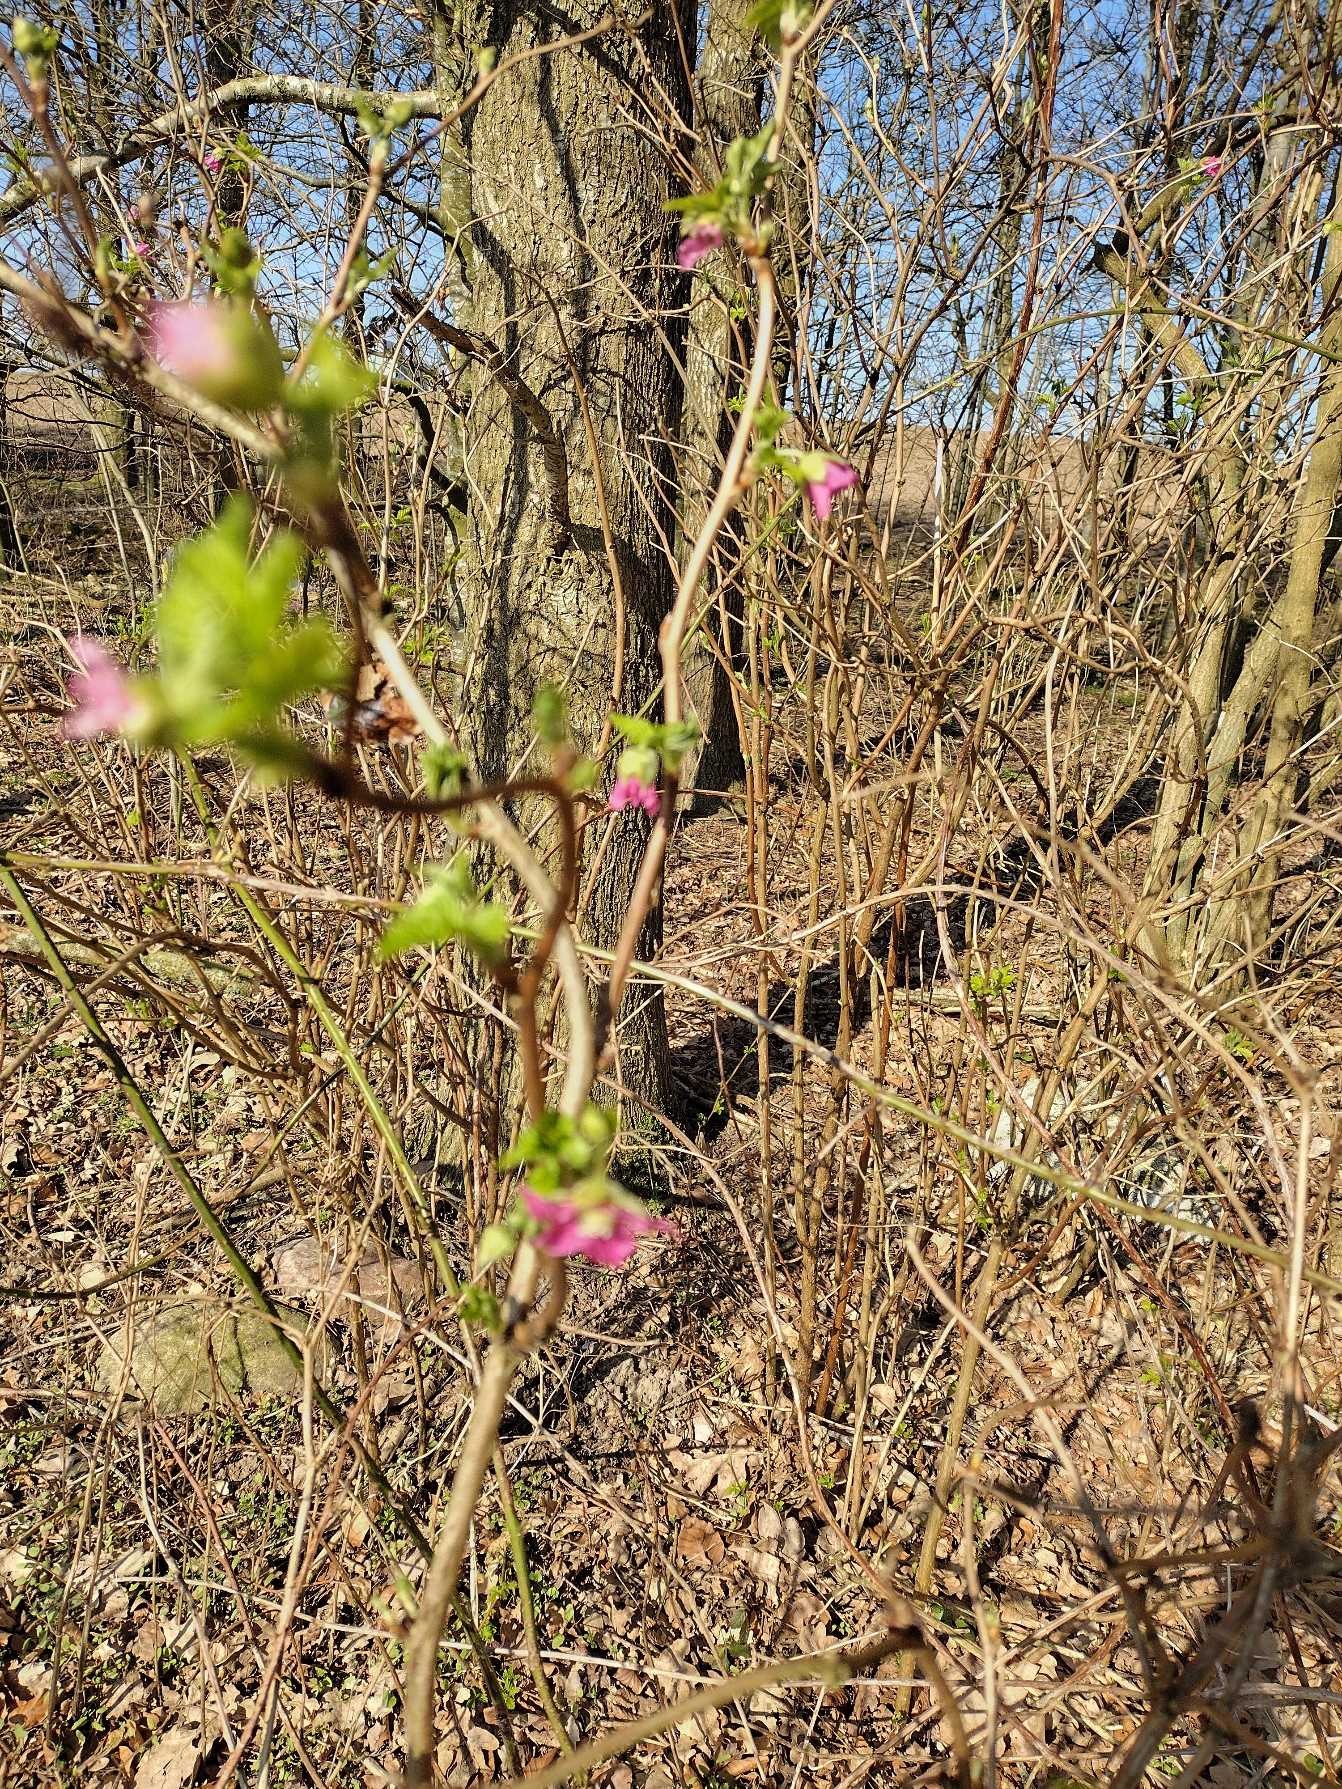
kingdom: Plantae
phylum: Tracheophyta
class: Magnoliopsida
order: Rosales
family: Rosaceae
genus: Rubus
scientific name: Rubus spectabilis
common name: Laksebær
